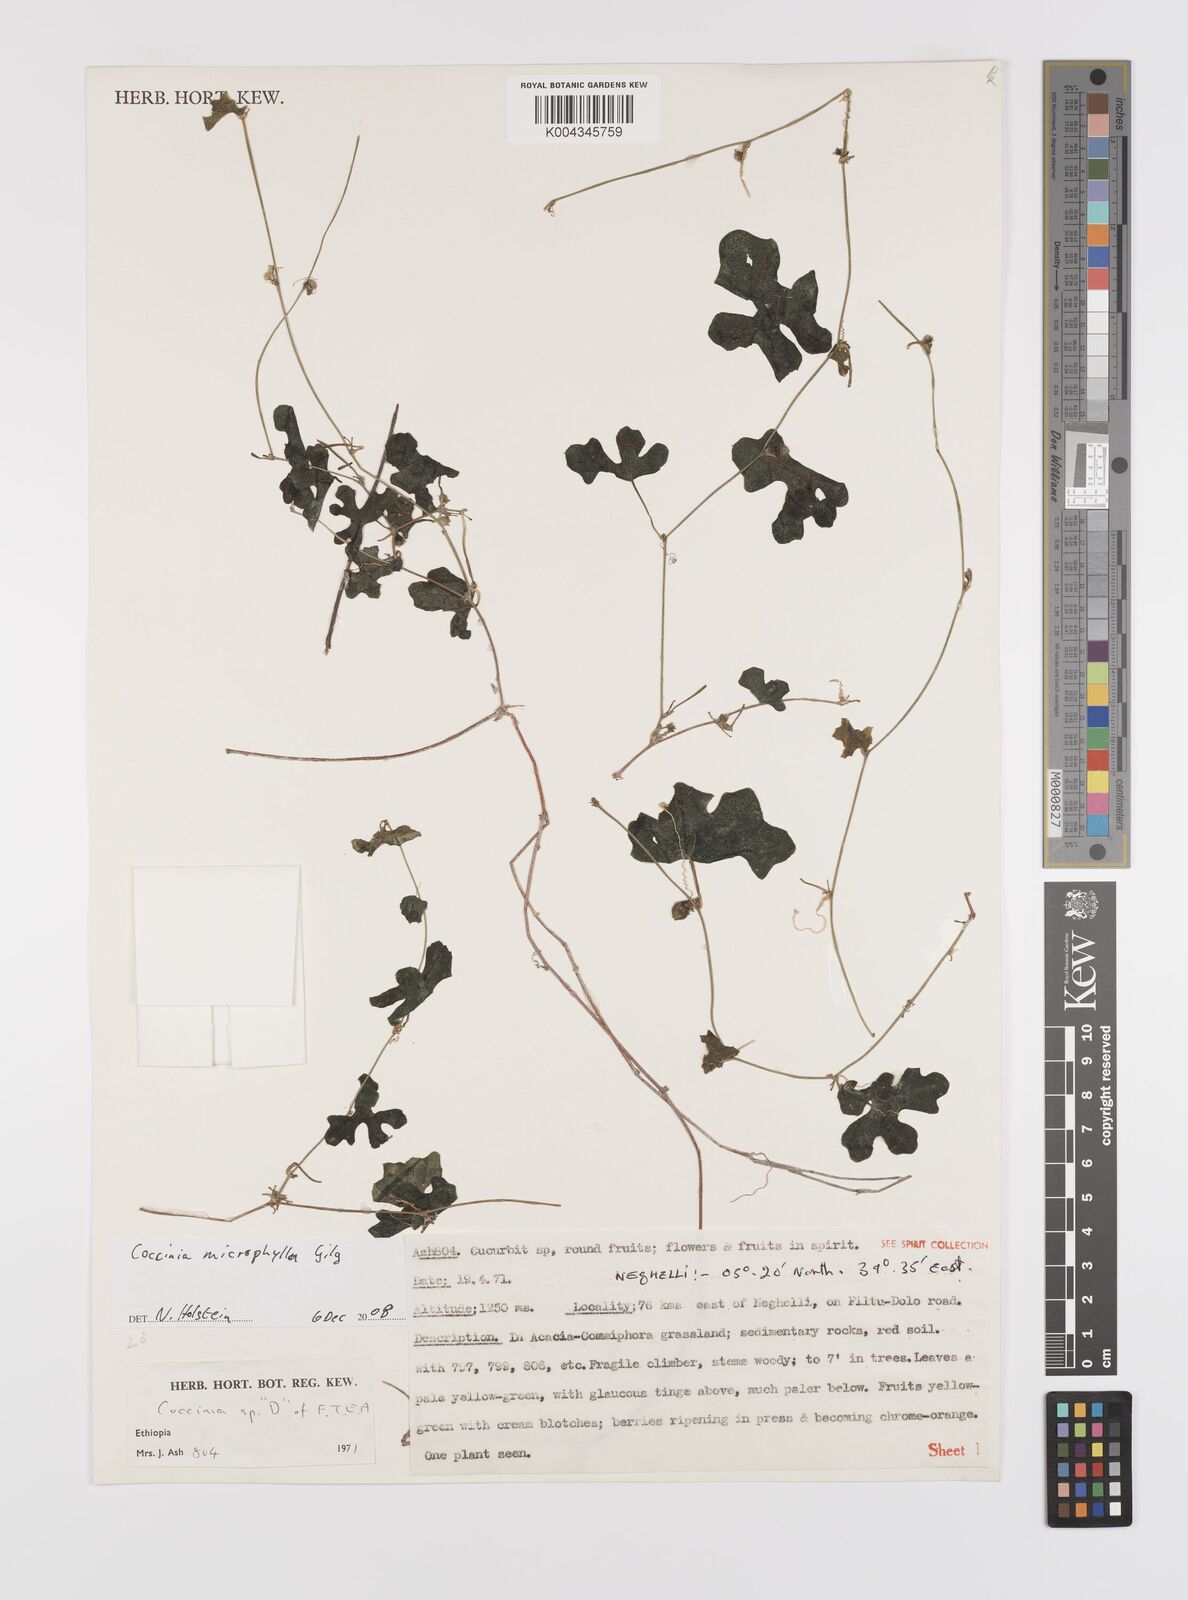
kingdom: Plantae
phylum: Tracheophyta
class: Magnoliopsida
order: Cucurbitales
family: Cucurbitaceae
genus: Coccinia
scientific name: Coccinia microphylla
